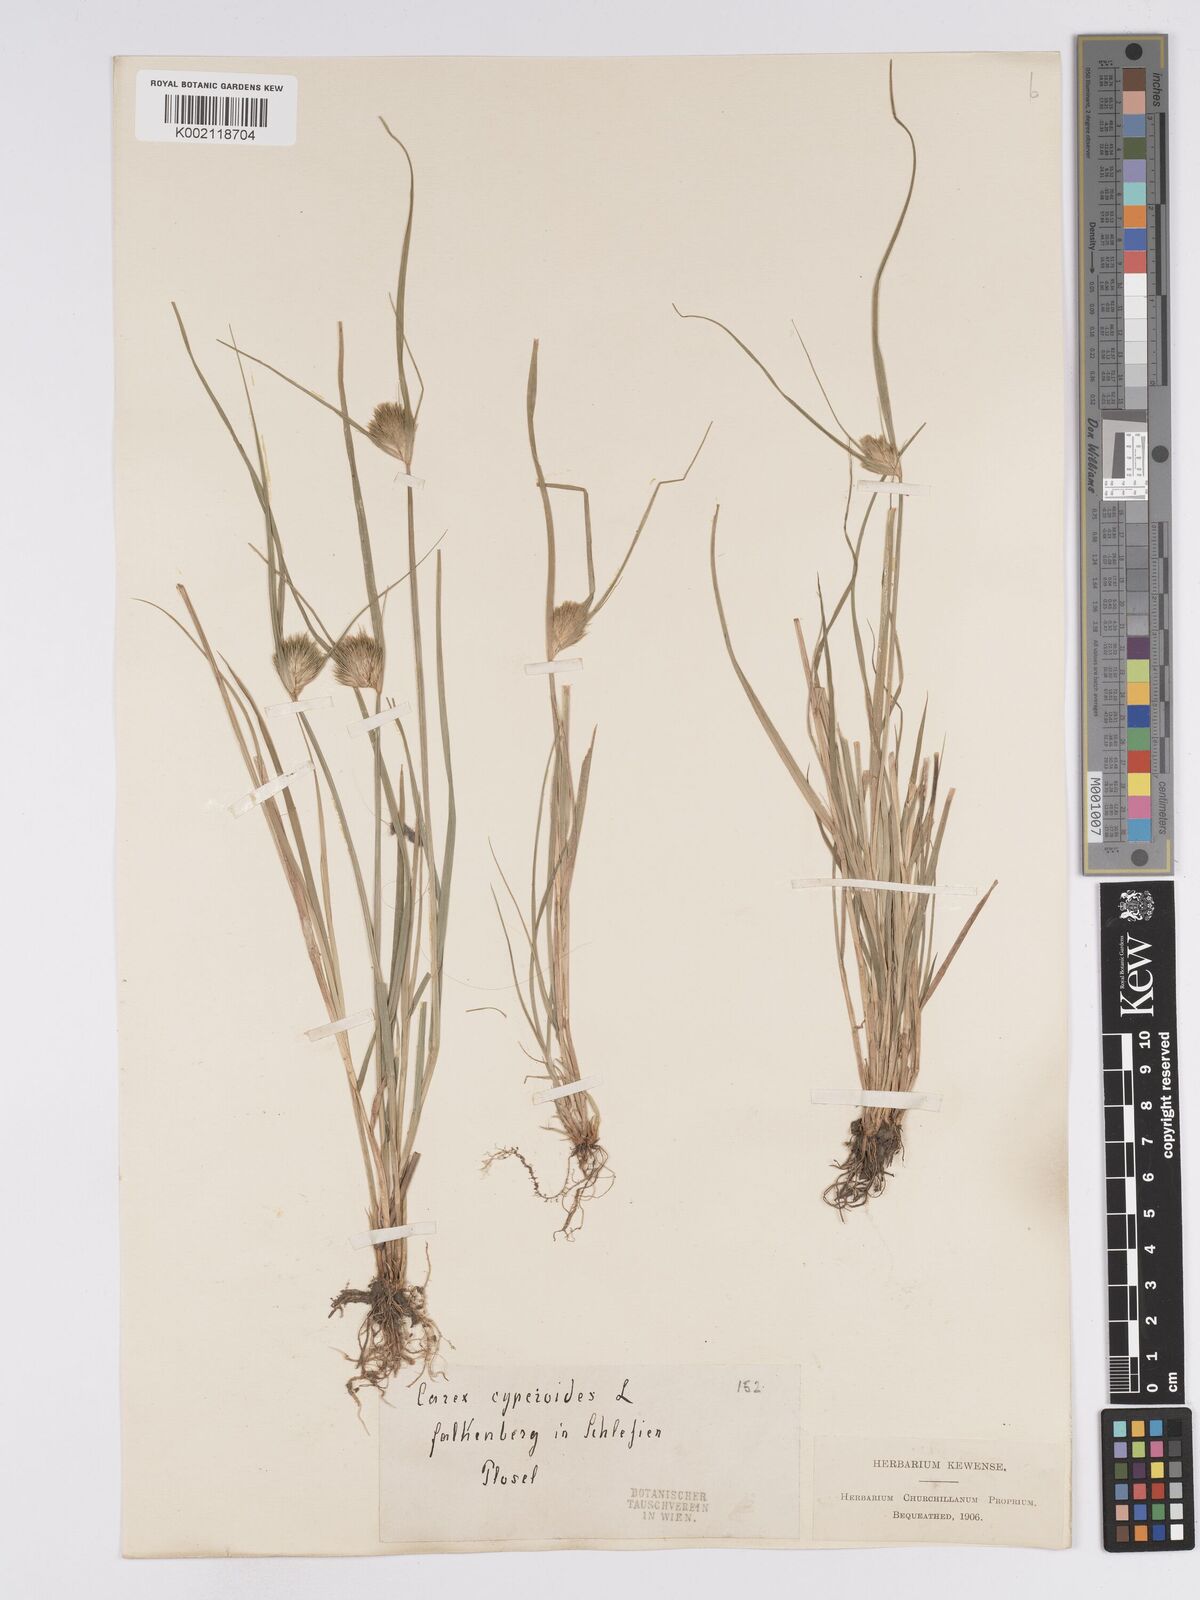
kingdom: Plantae
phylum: Tracheophyta
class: Liliopsida
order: Poales
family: Cyperaceae
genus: Carex
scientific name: Carex bohemica
